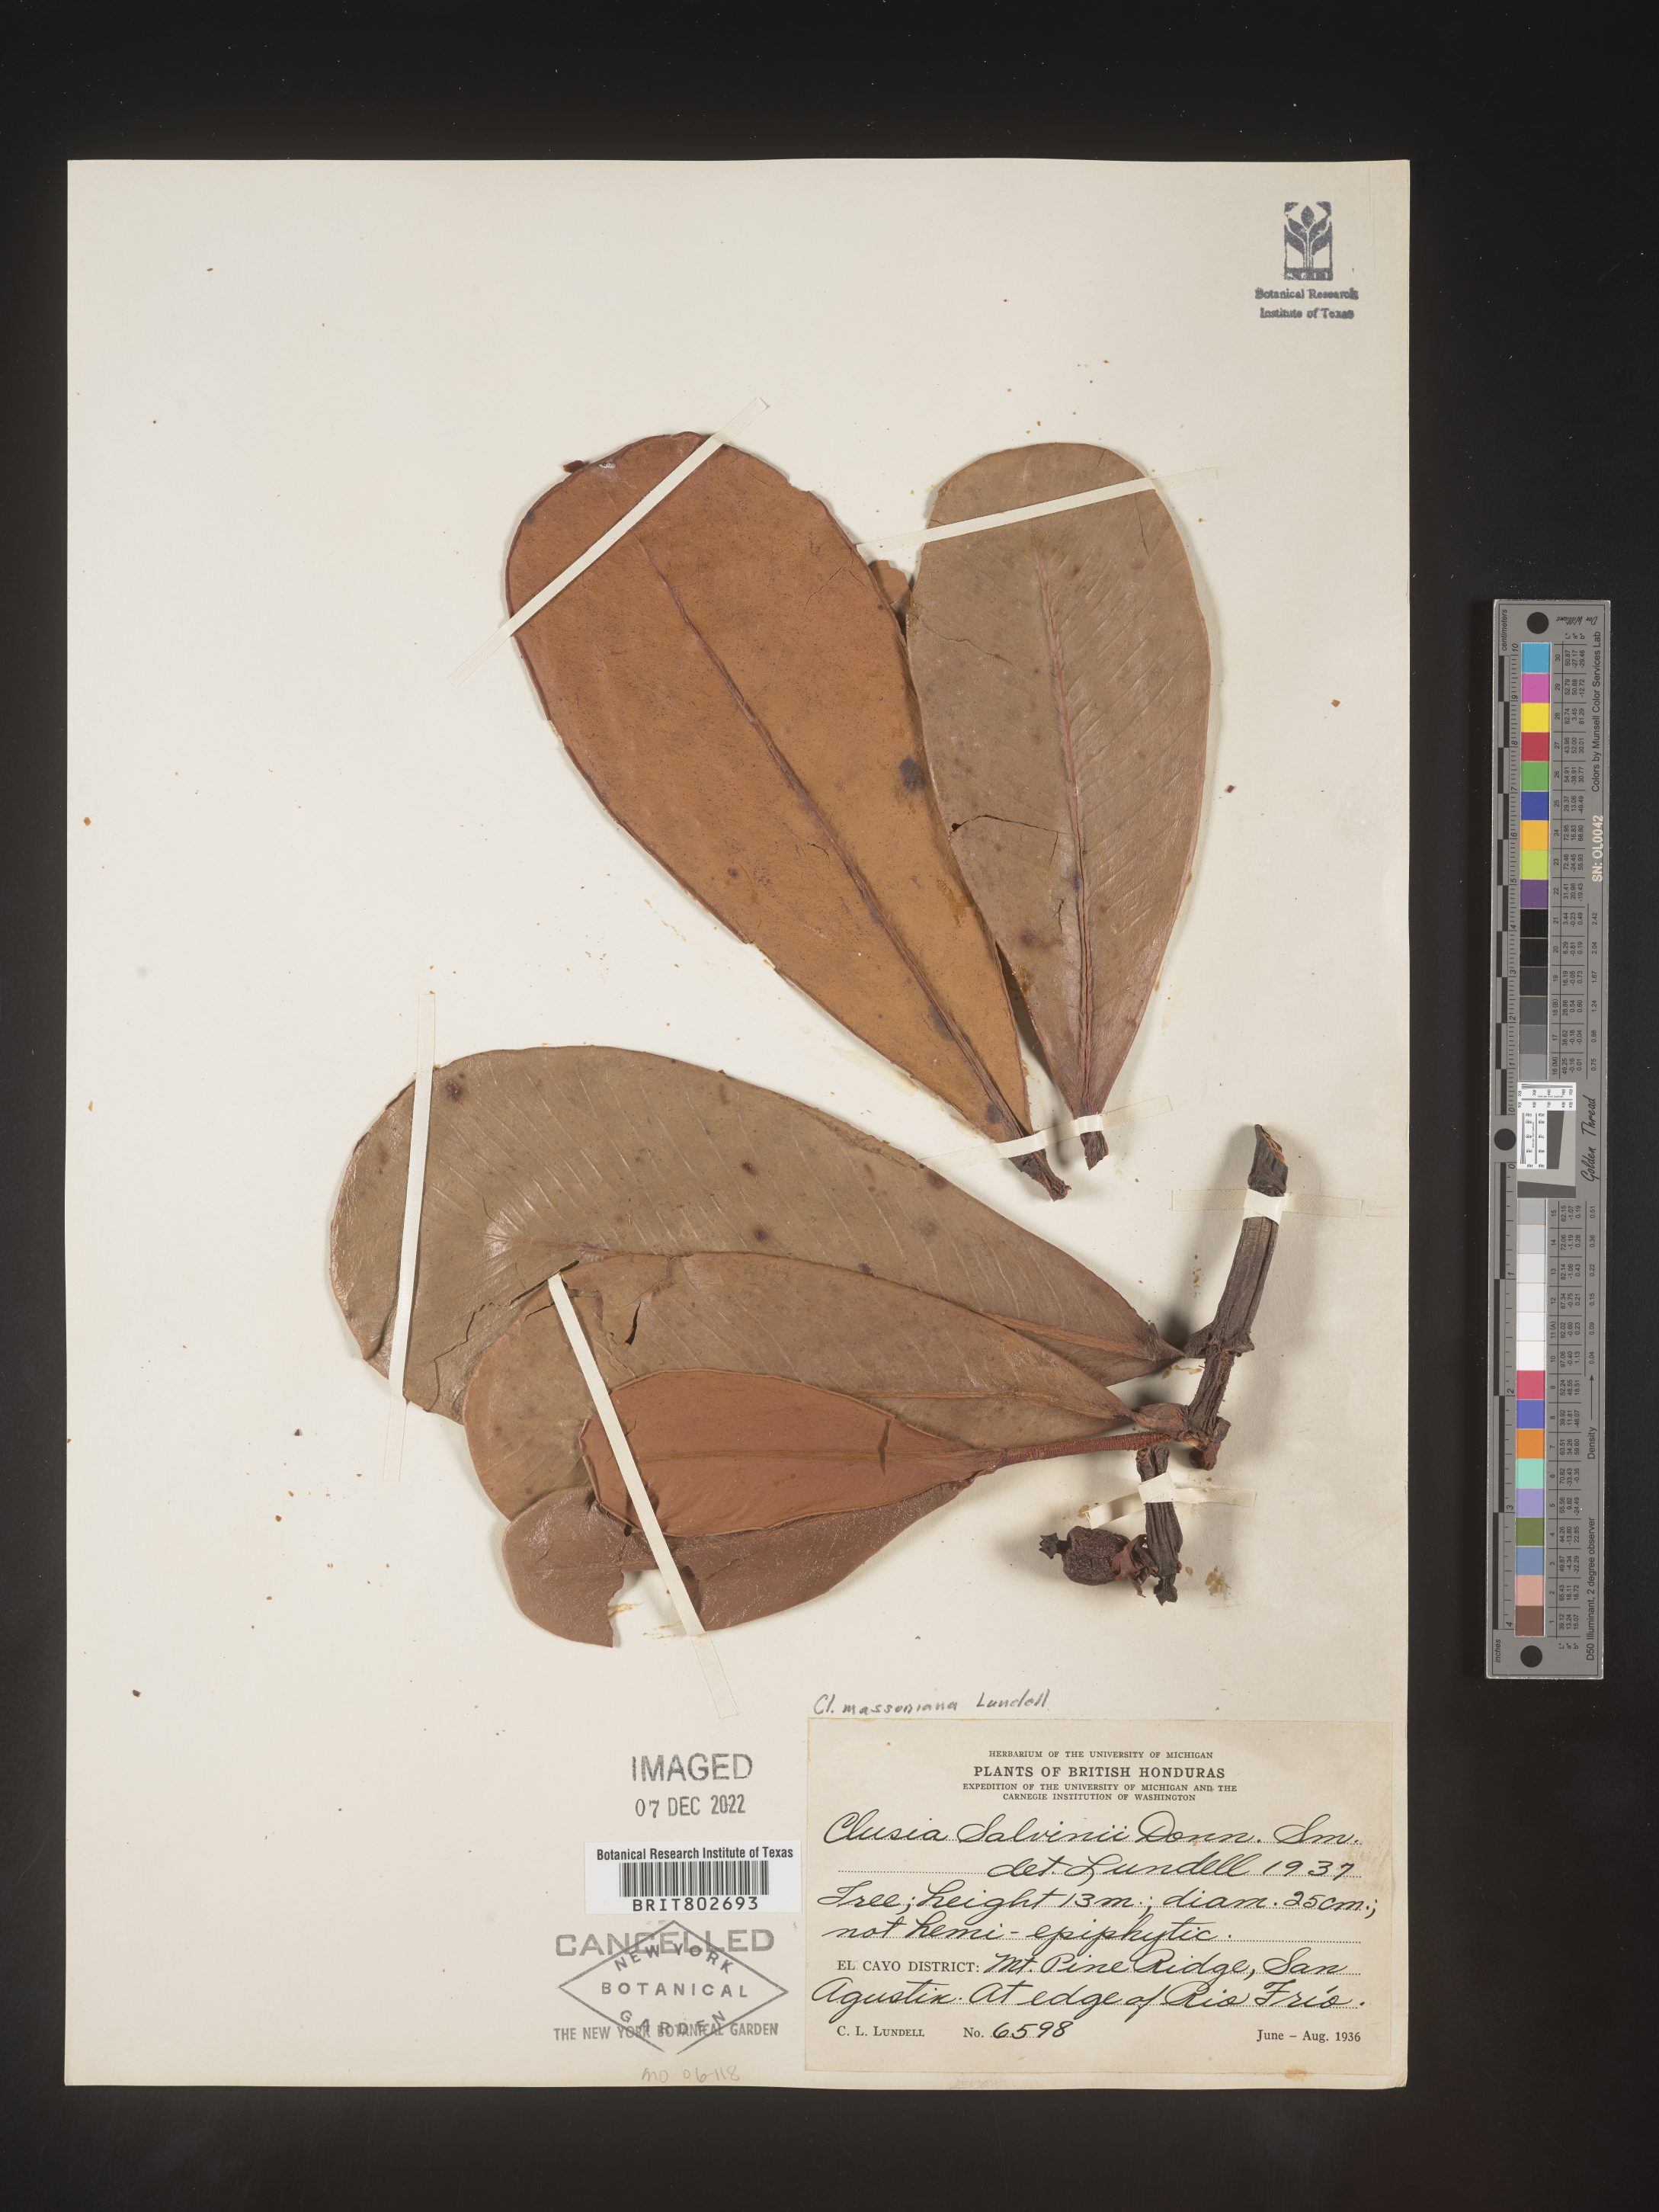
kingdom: Plantae
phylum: Tracheophyta
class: Magnoliopsida
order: Malpighiales
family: Clusiaceae
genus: Clusia
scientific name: Clusia
